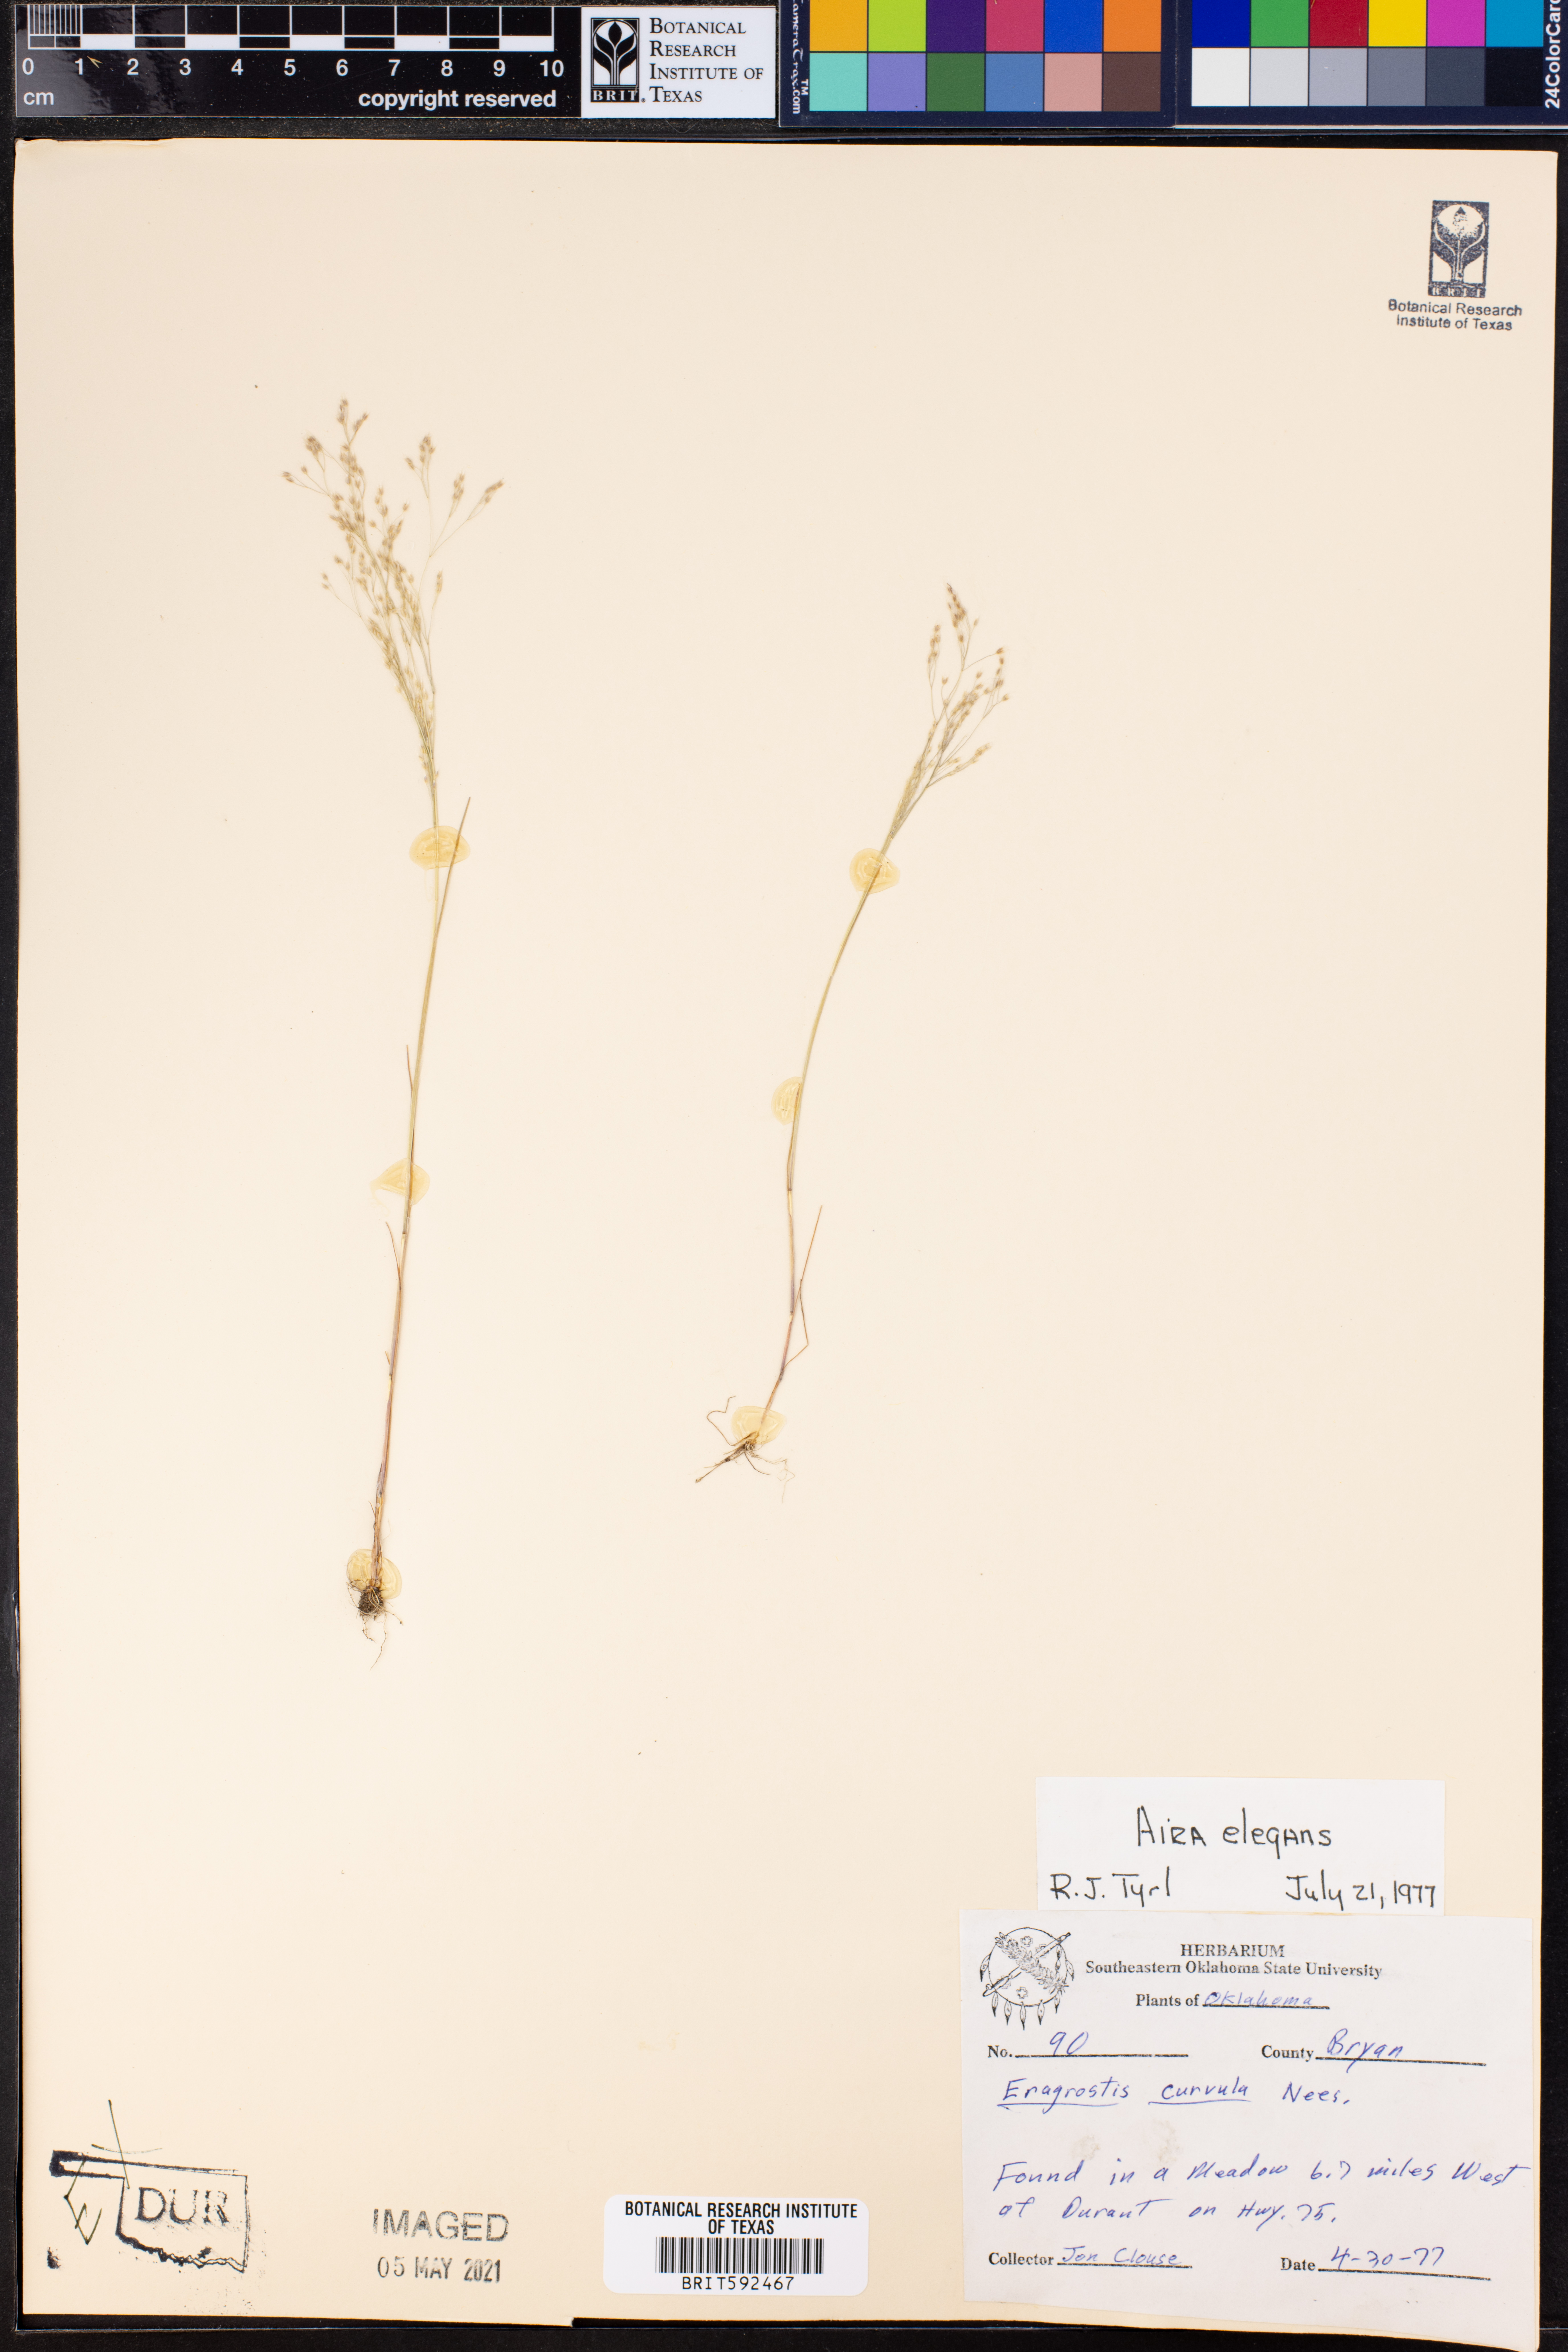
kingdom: Plantae
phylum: Tracheophyta
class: Liliopsida
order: Poales
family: Poaceae
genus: Eragrostis
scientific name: Eragrostis curvula
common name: African love-grass
